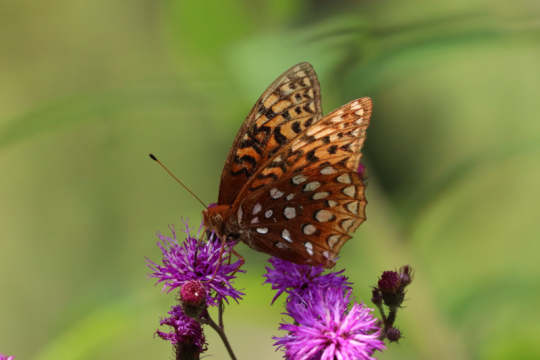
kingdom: Animalia
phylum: Arthropoda
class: Insecta
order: Lepidoptera
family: Nymphalidae
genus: Speyeria
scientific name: Speyeria aphrodite
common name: Aphrodite Fritillary
